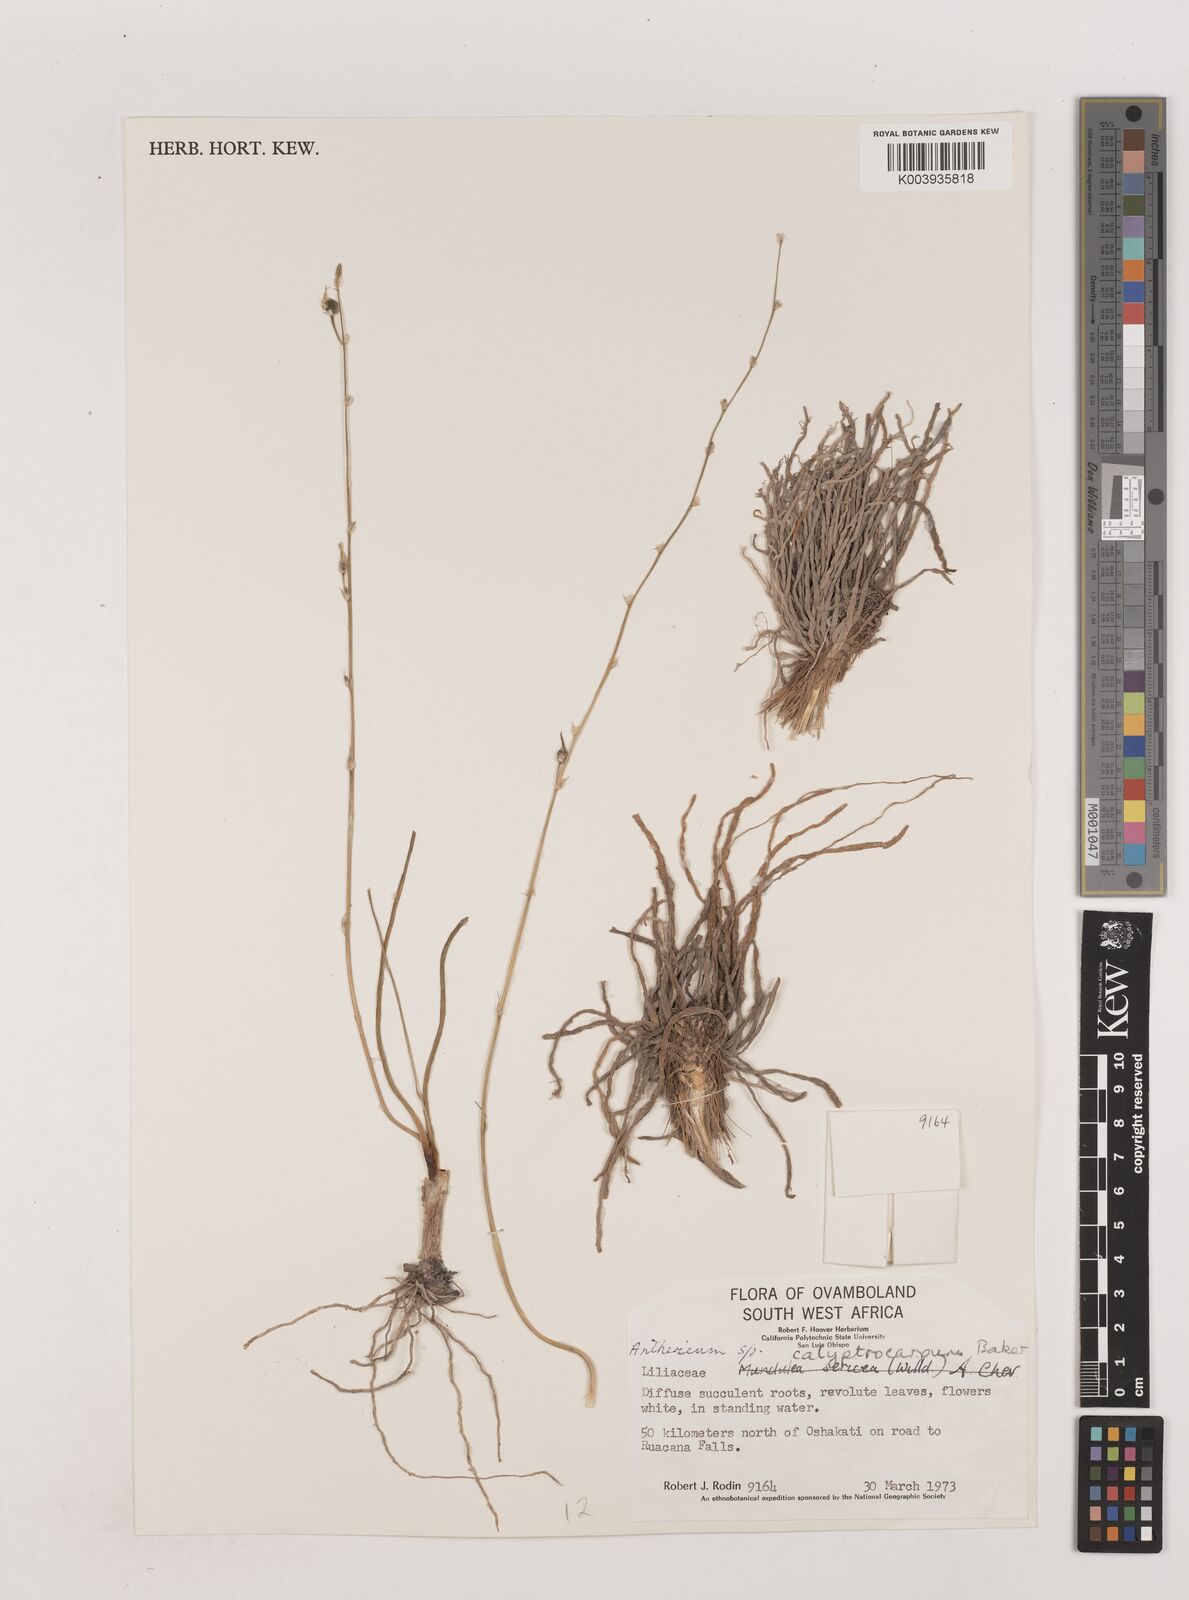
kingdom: Plantae
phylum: Tracheophyta
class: Liliopsida
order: Asparagales
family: Asparagaceae
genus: Chlorophytum
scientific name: Chlorophytum calyptrocarpum
